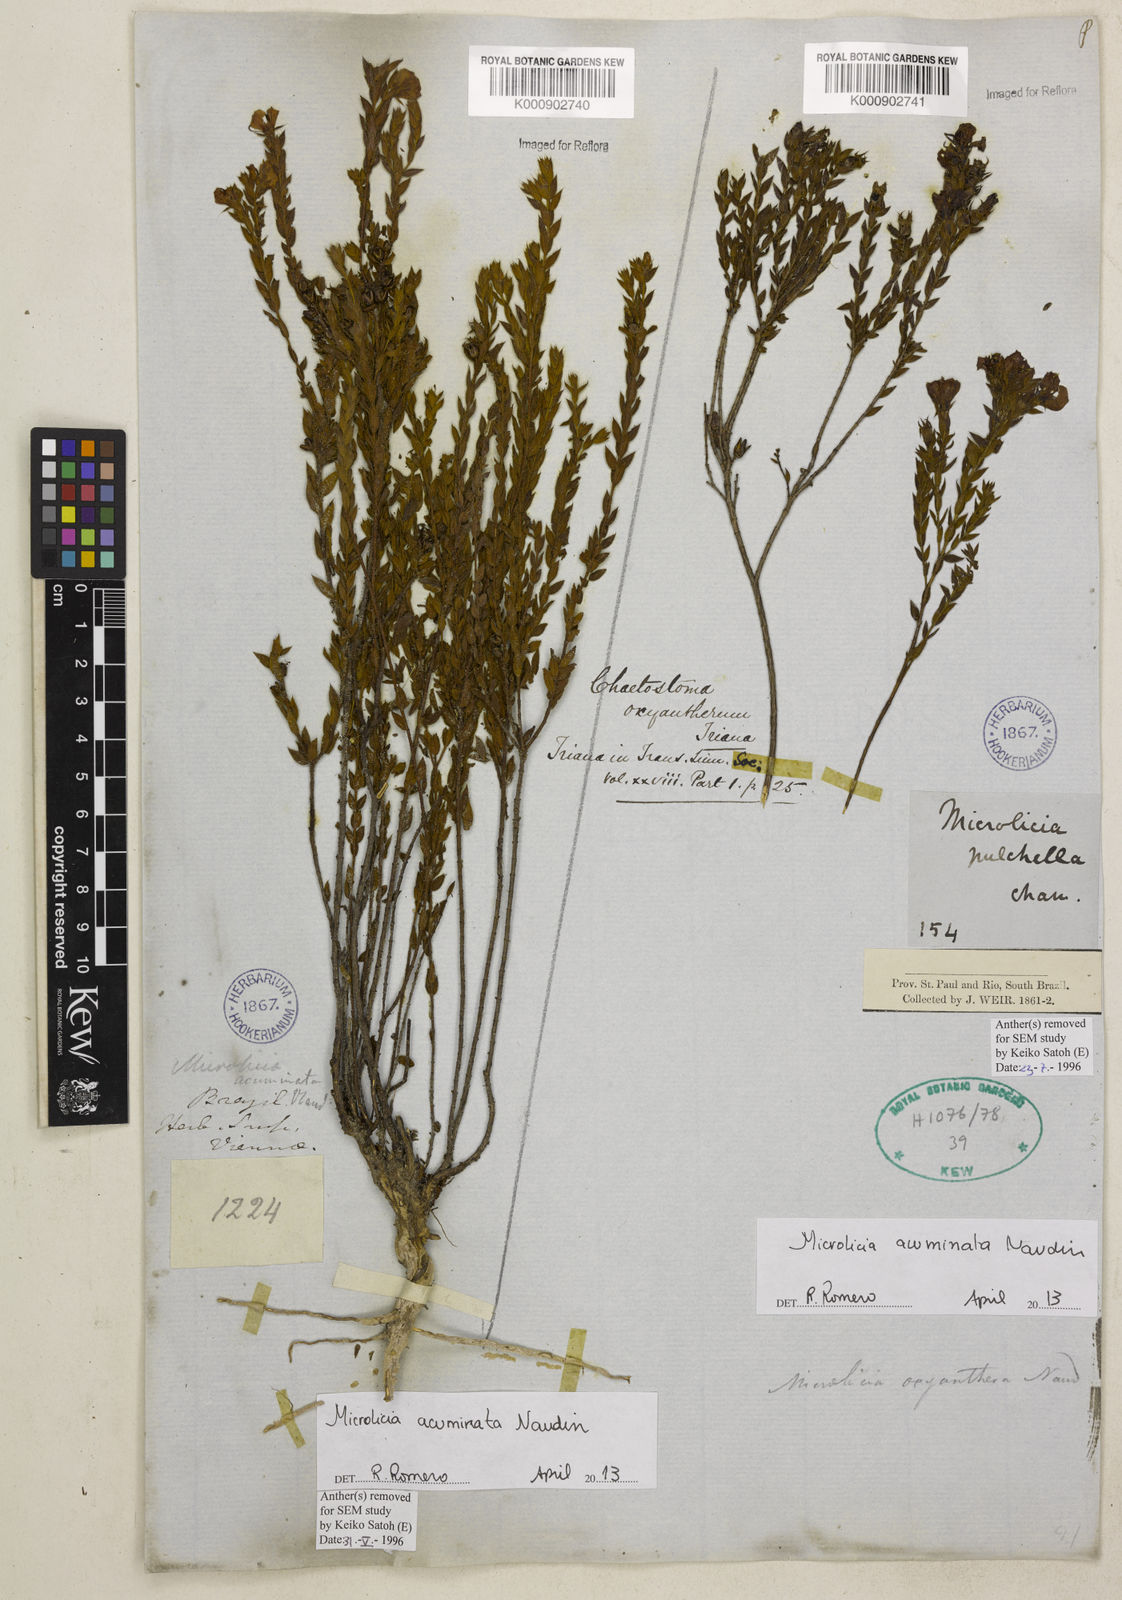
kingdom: Plantae
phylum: Tracheophyta
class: Magnoliopsida
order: Myrtales
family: Melastomataceae
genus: Microlicia
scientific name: Microlicia
